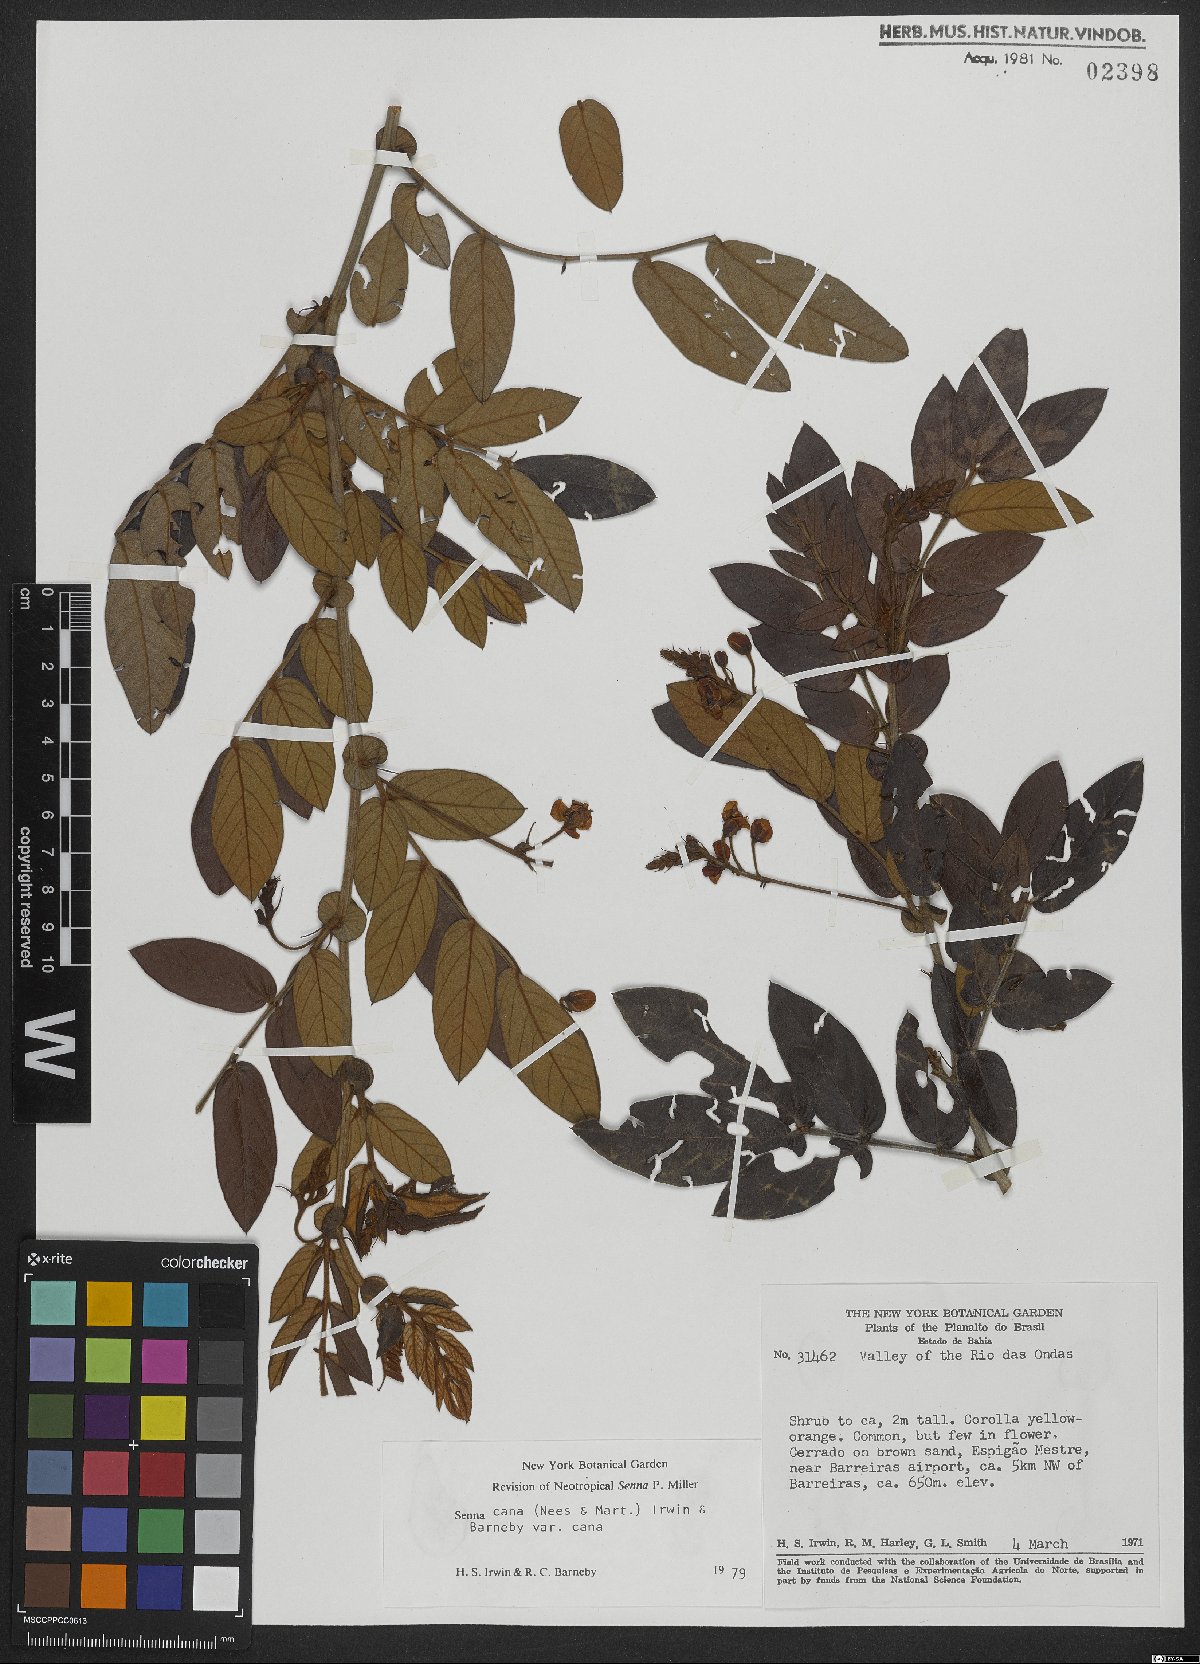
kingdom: Plantae
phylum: Tracheophyta
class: Magnoliopsida
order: Fabales
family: Fabaceae
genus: Senna
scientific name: Senna cana
